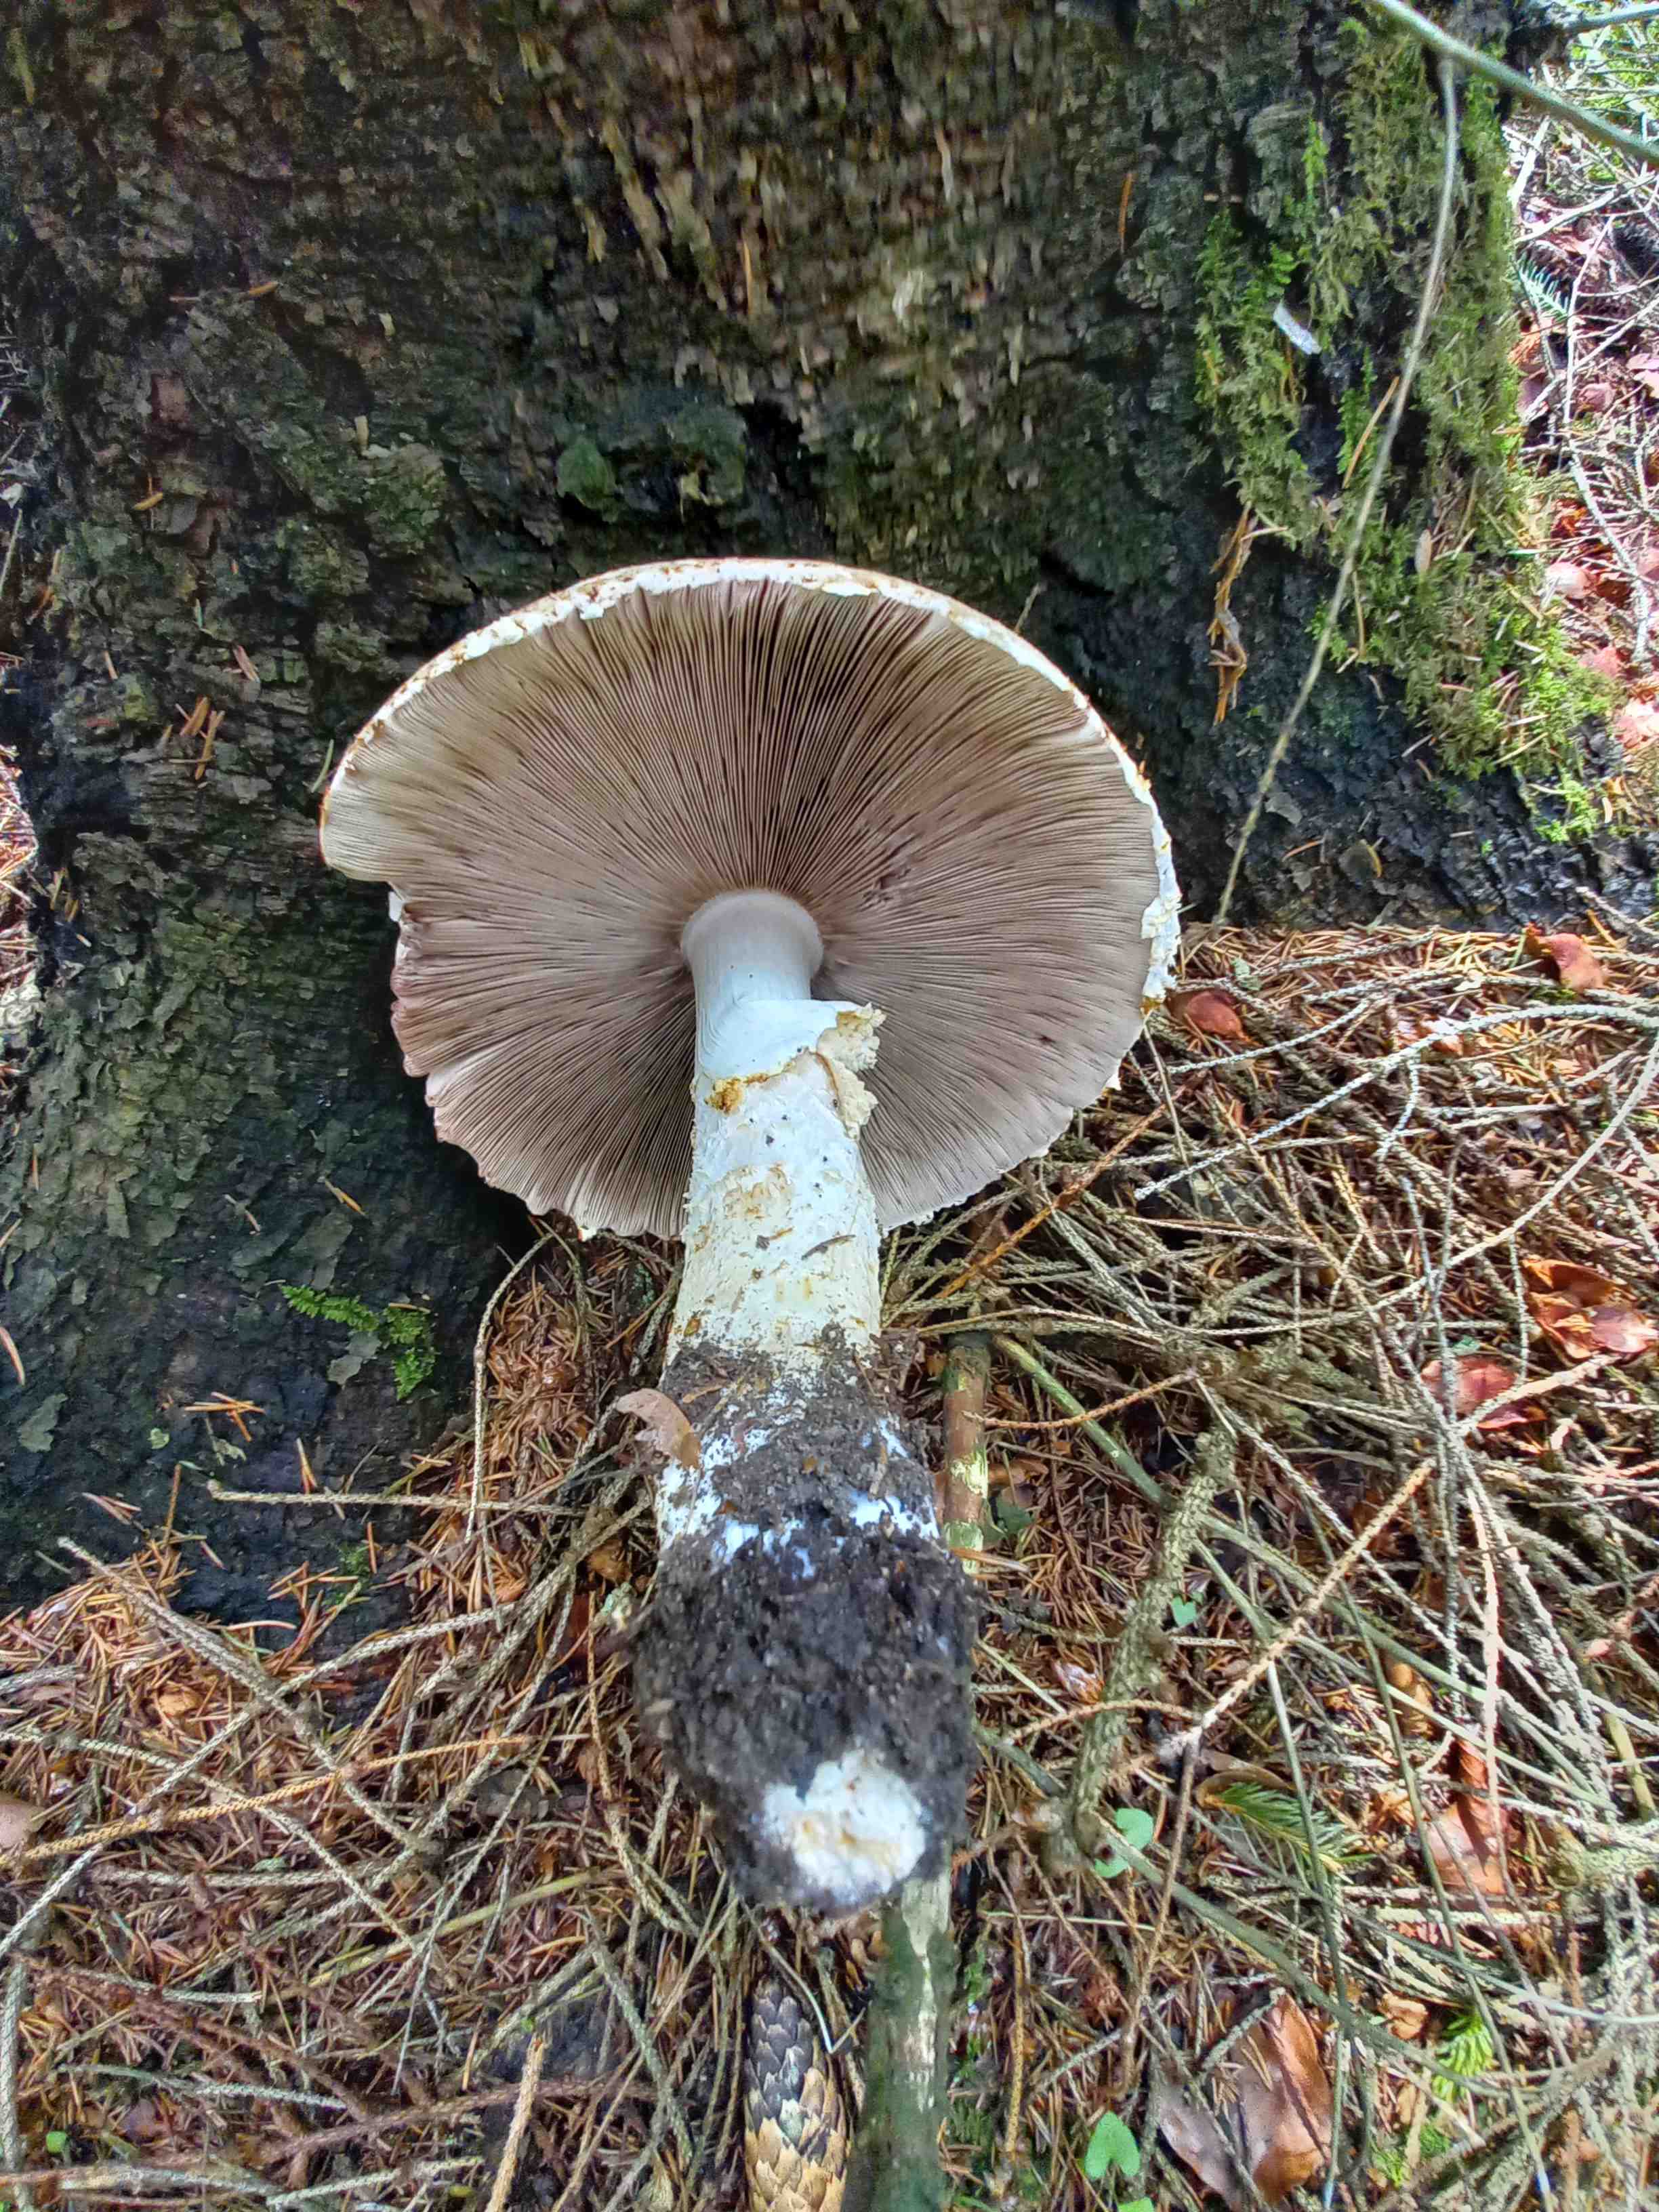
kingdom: Fungi
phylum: Basidiomycota
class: Agaricomycetes
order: Agaricales
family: Agaricaceae
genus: Agaricus
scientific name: Agaricus augustus
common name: prægtig champignon
